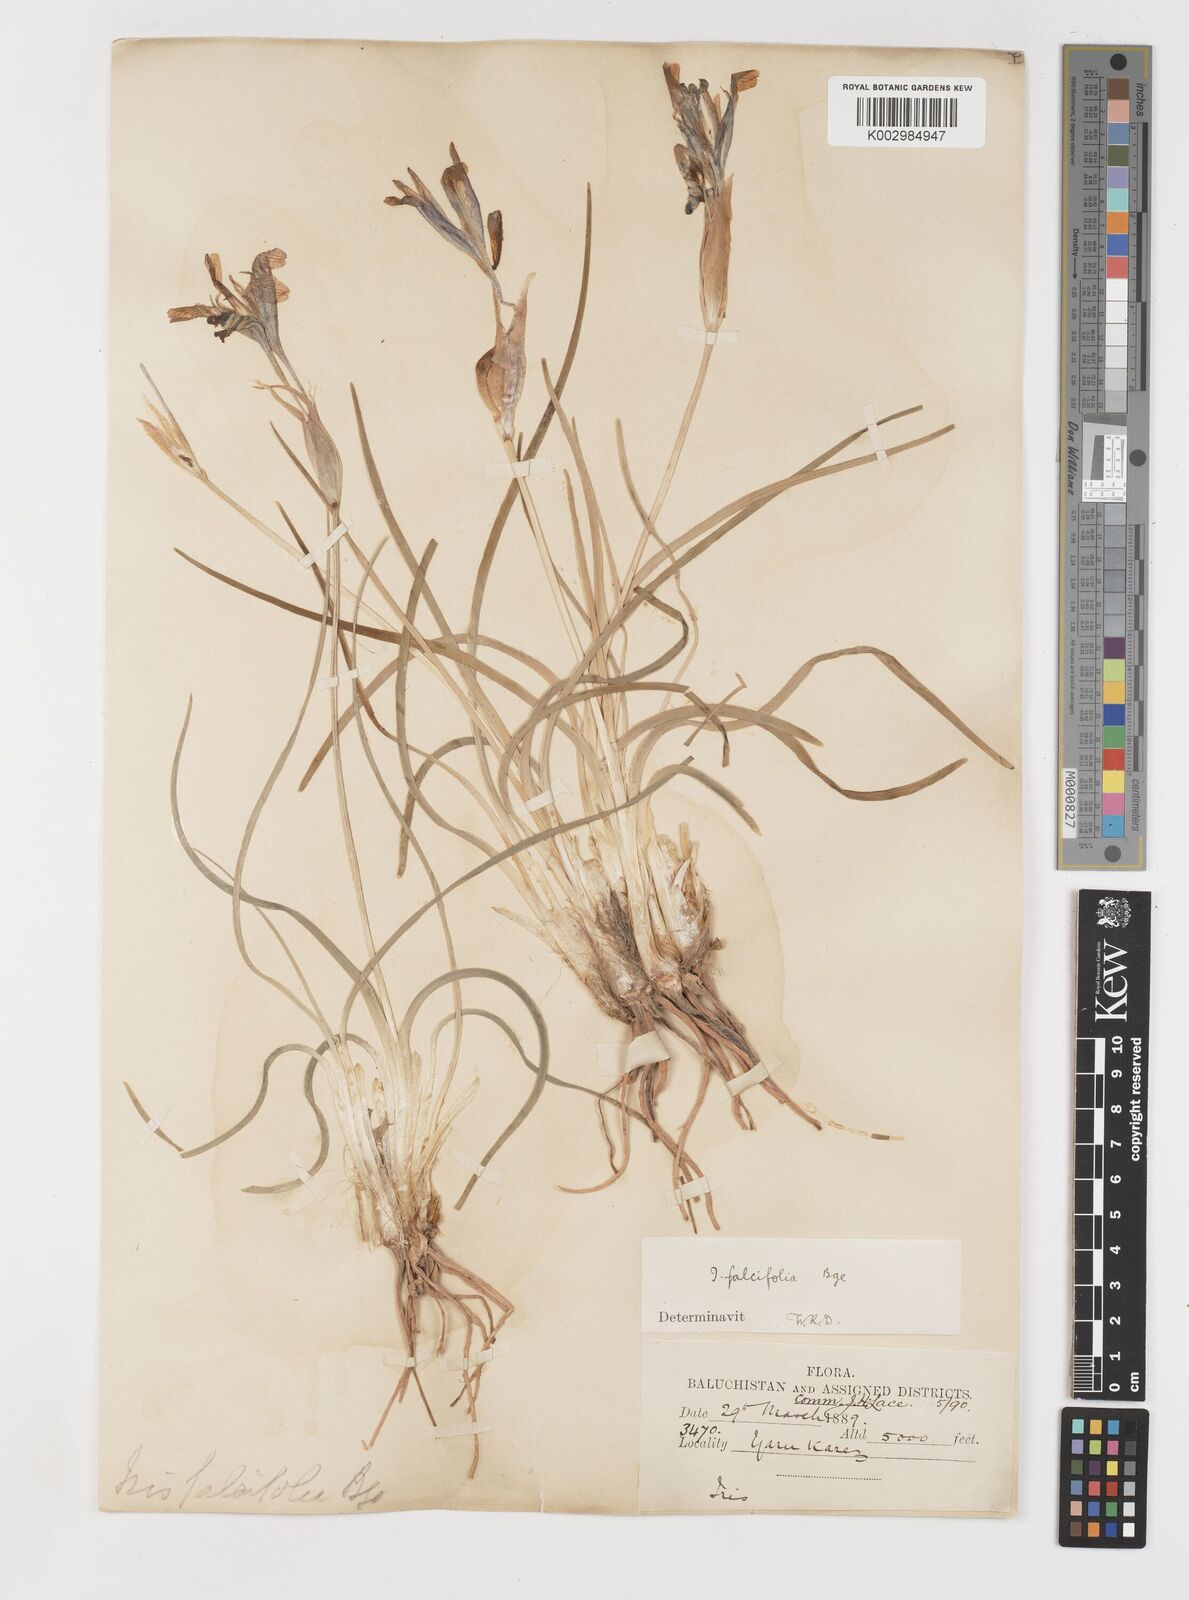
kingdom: Plantae
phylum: Tracheophyta
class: Liliopsida
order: Asparagales
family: Iridaceae
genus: Iris
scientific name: Iris longiscapa
